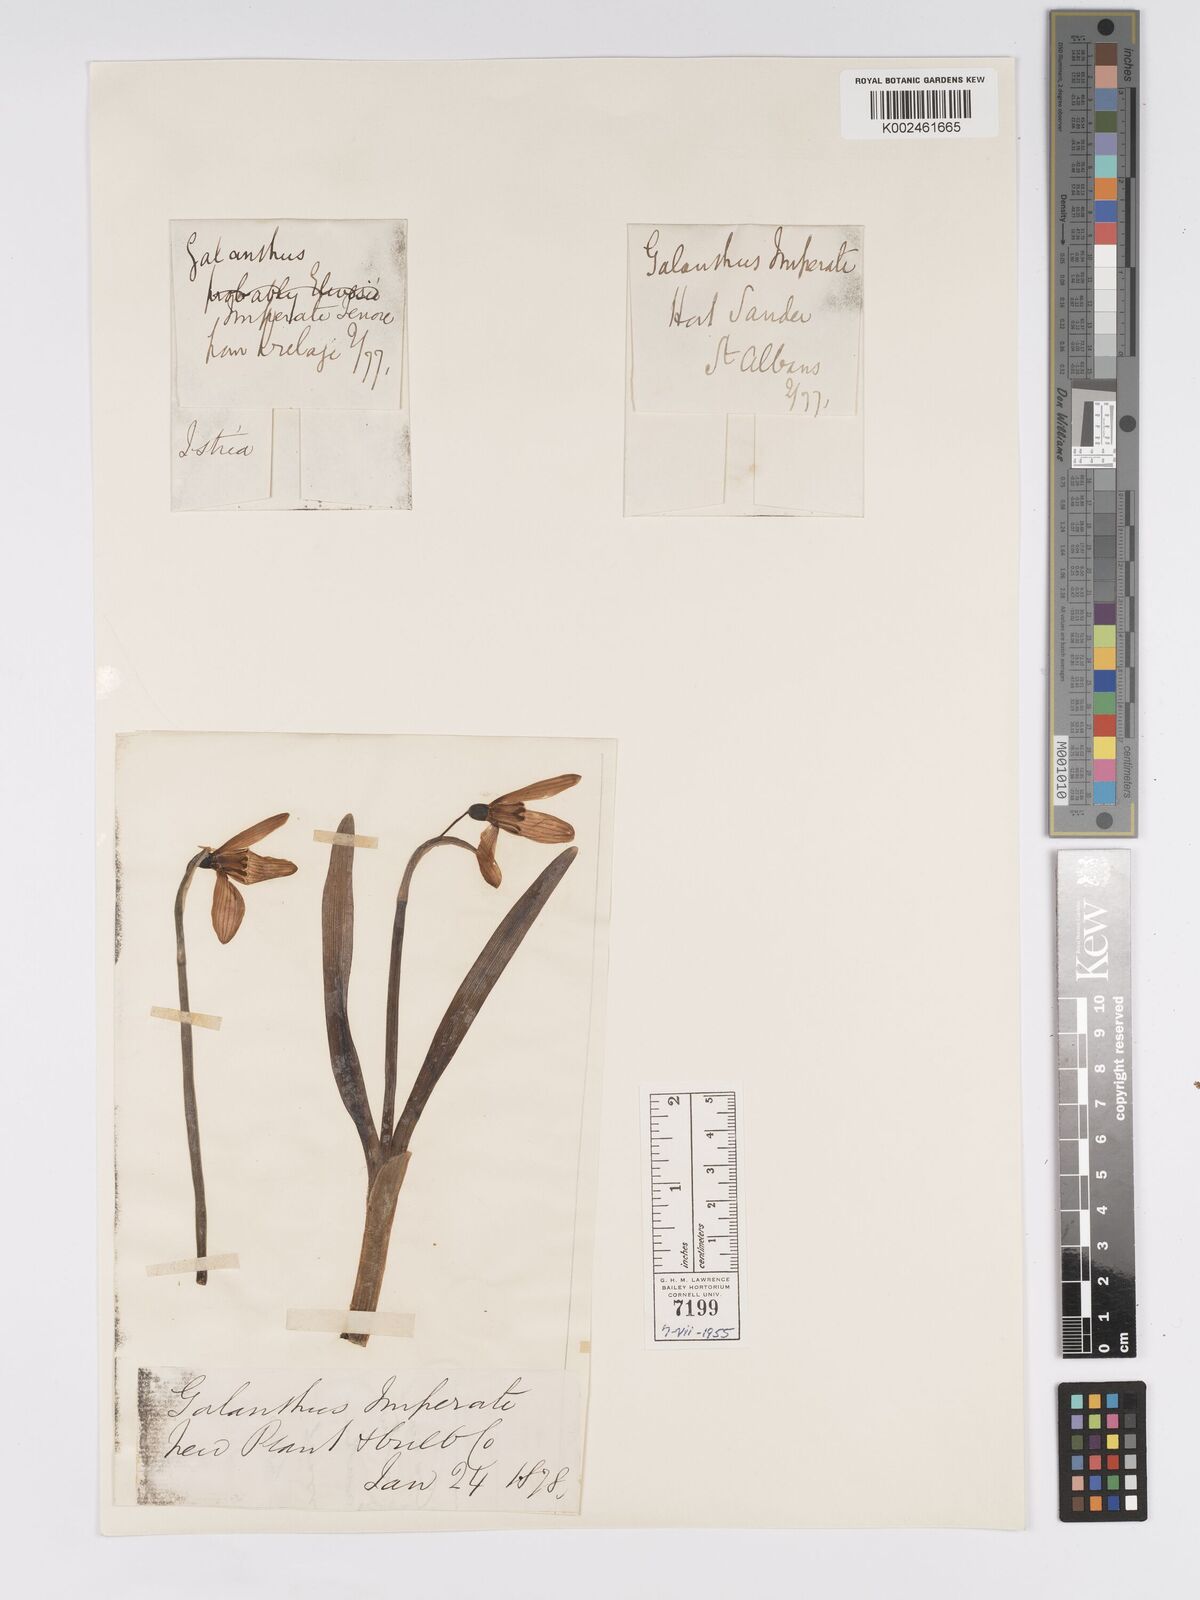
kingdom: Plantae
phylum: Tracheophyta
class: Liliopsida
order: Asparagales
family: Amaryllidaceae
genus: Galanthus
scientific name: Galanthus nivalis
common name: Snowdrop
